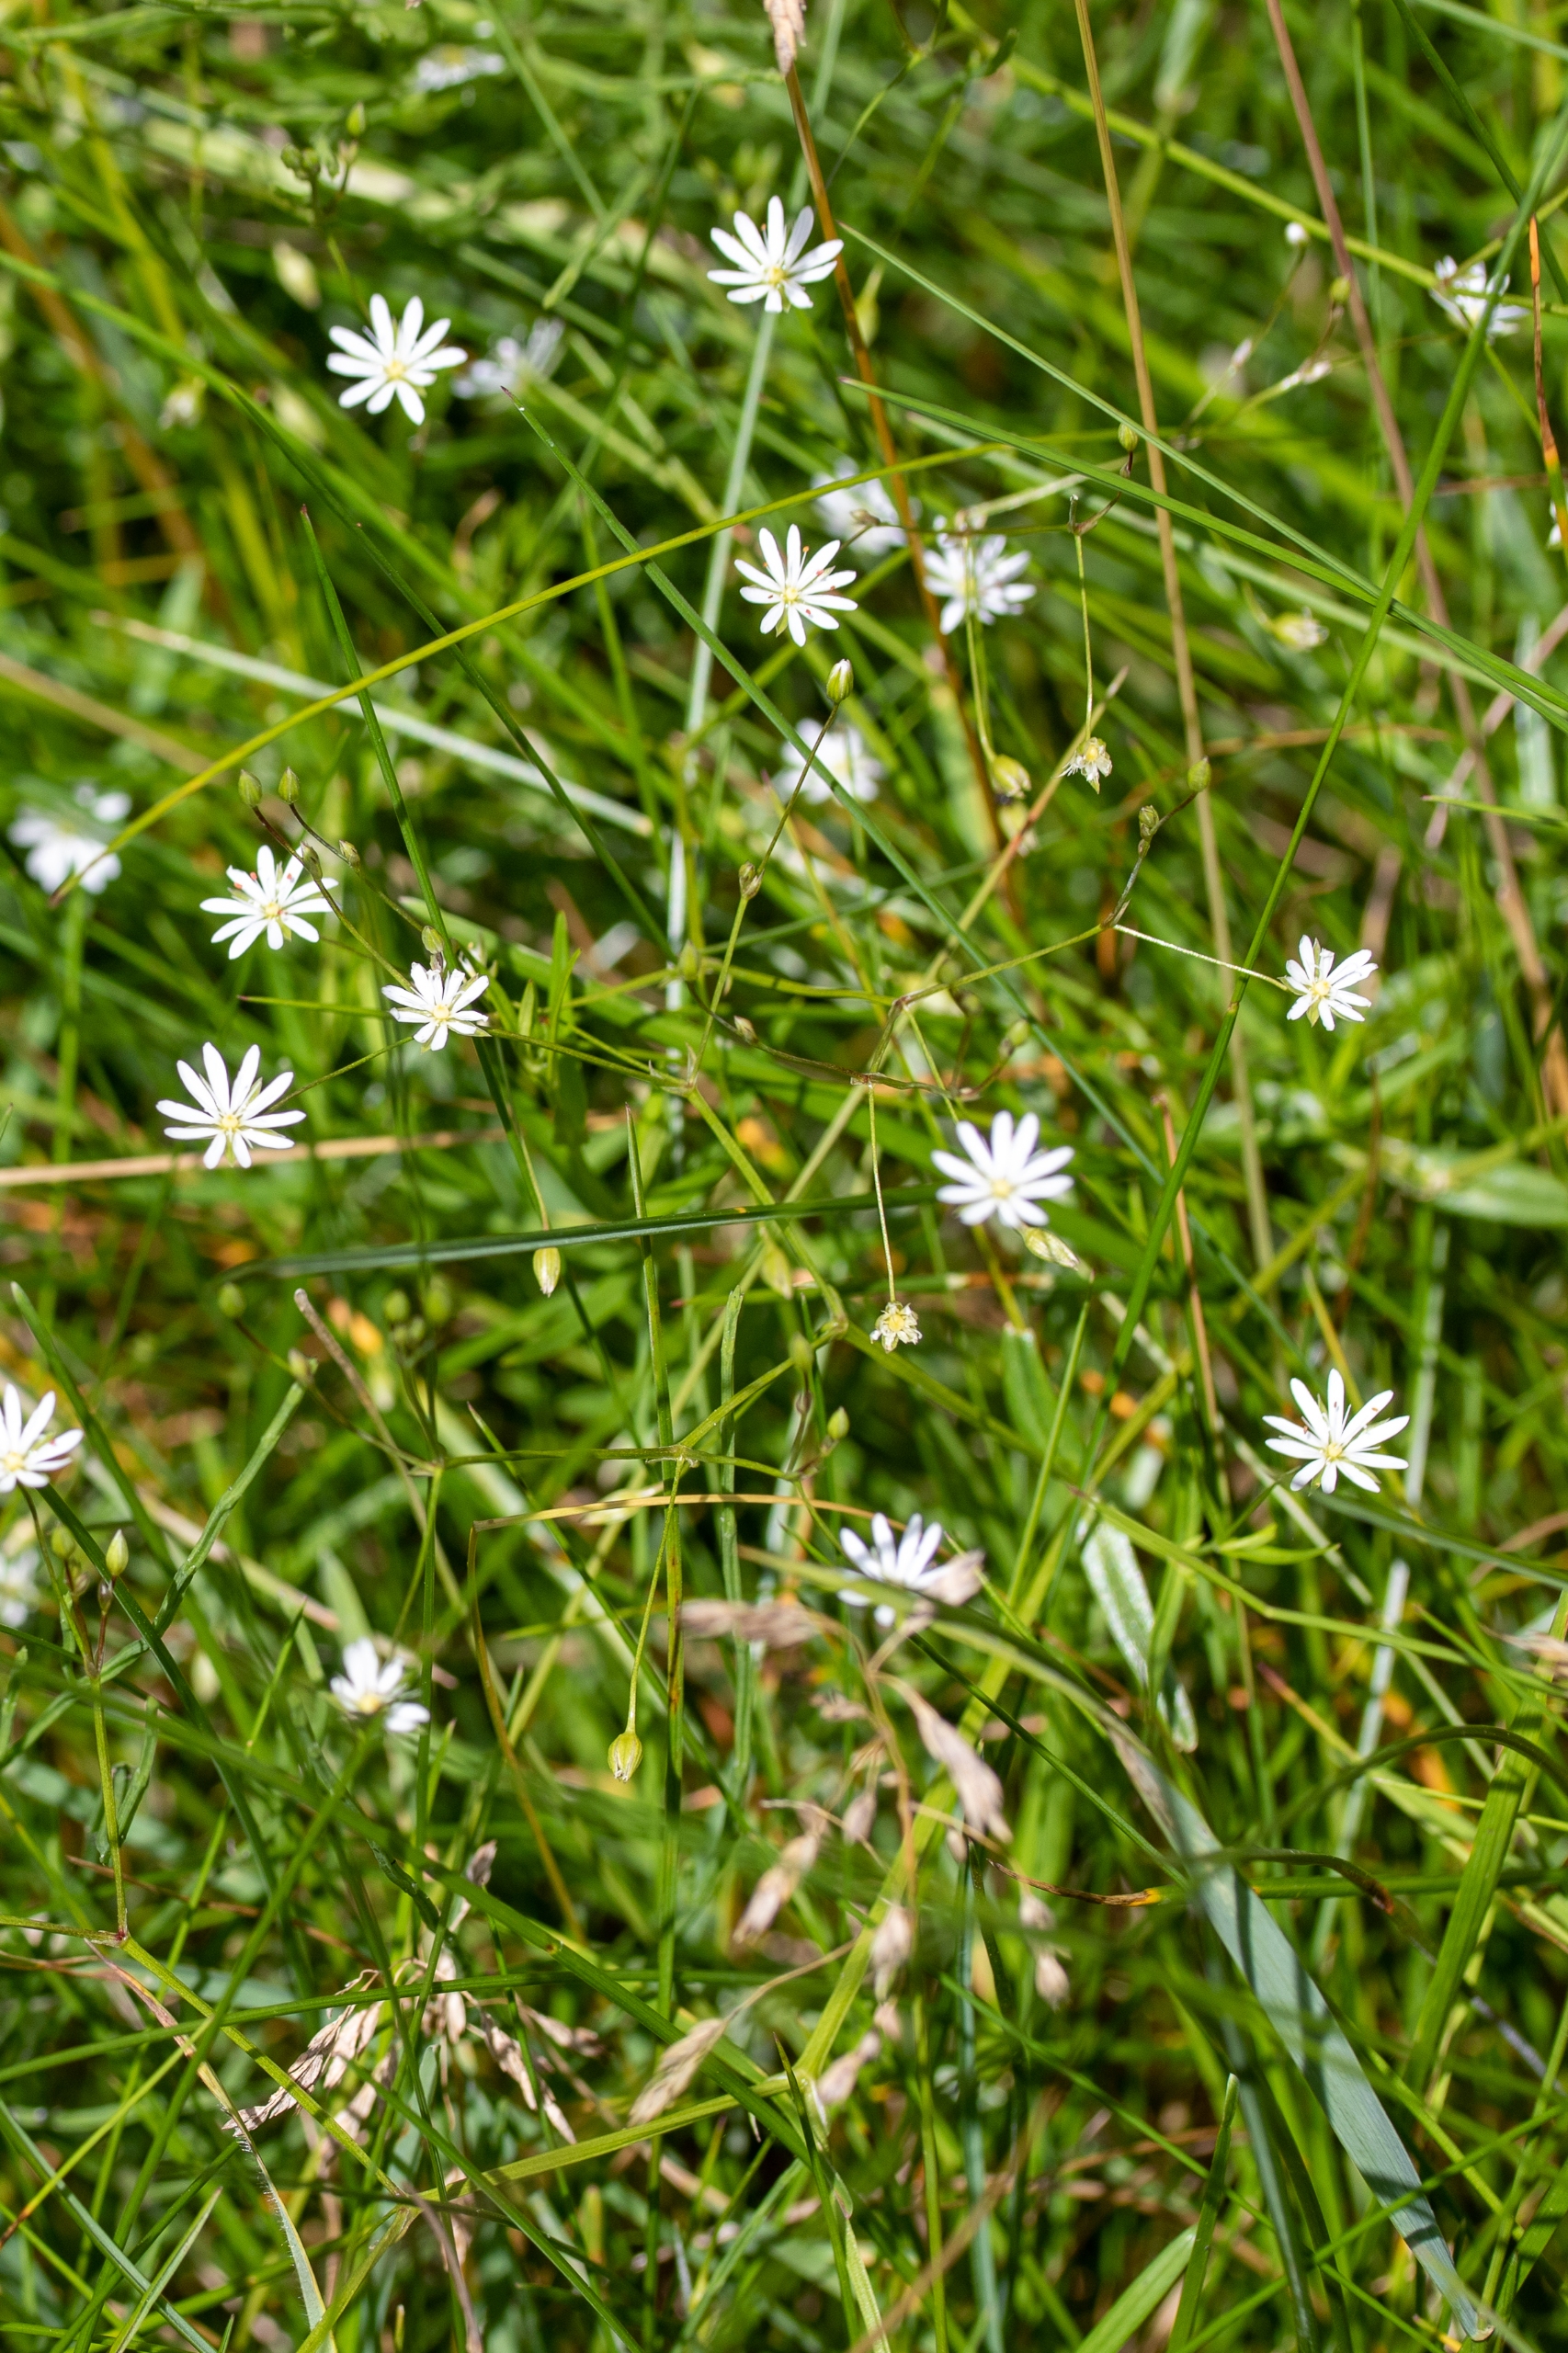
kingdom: Plantae
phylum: Tracheophyta
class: Magnoliopsida
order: Caryophyllales
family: Caryophyllaceae
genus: Stellaria
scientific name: Stellaria graminea
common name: Græsbladet fladstjerne
